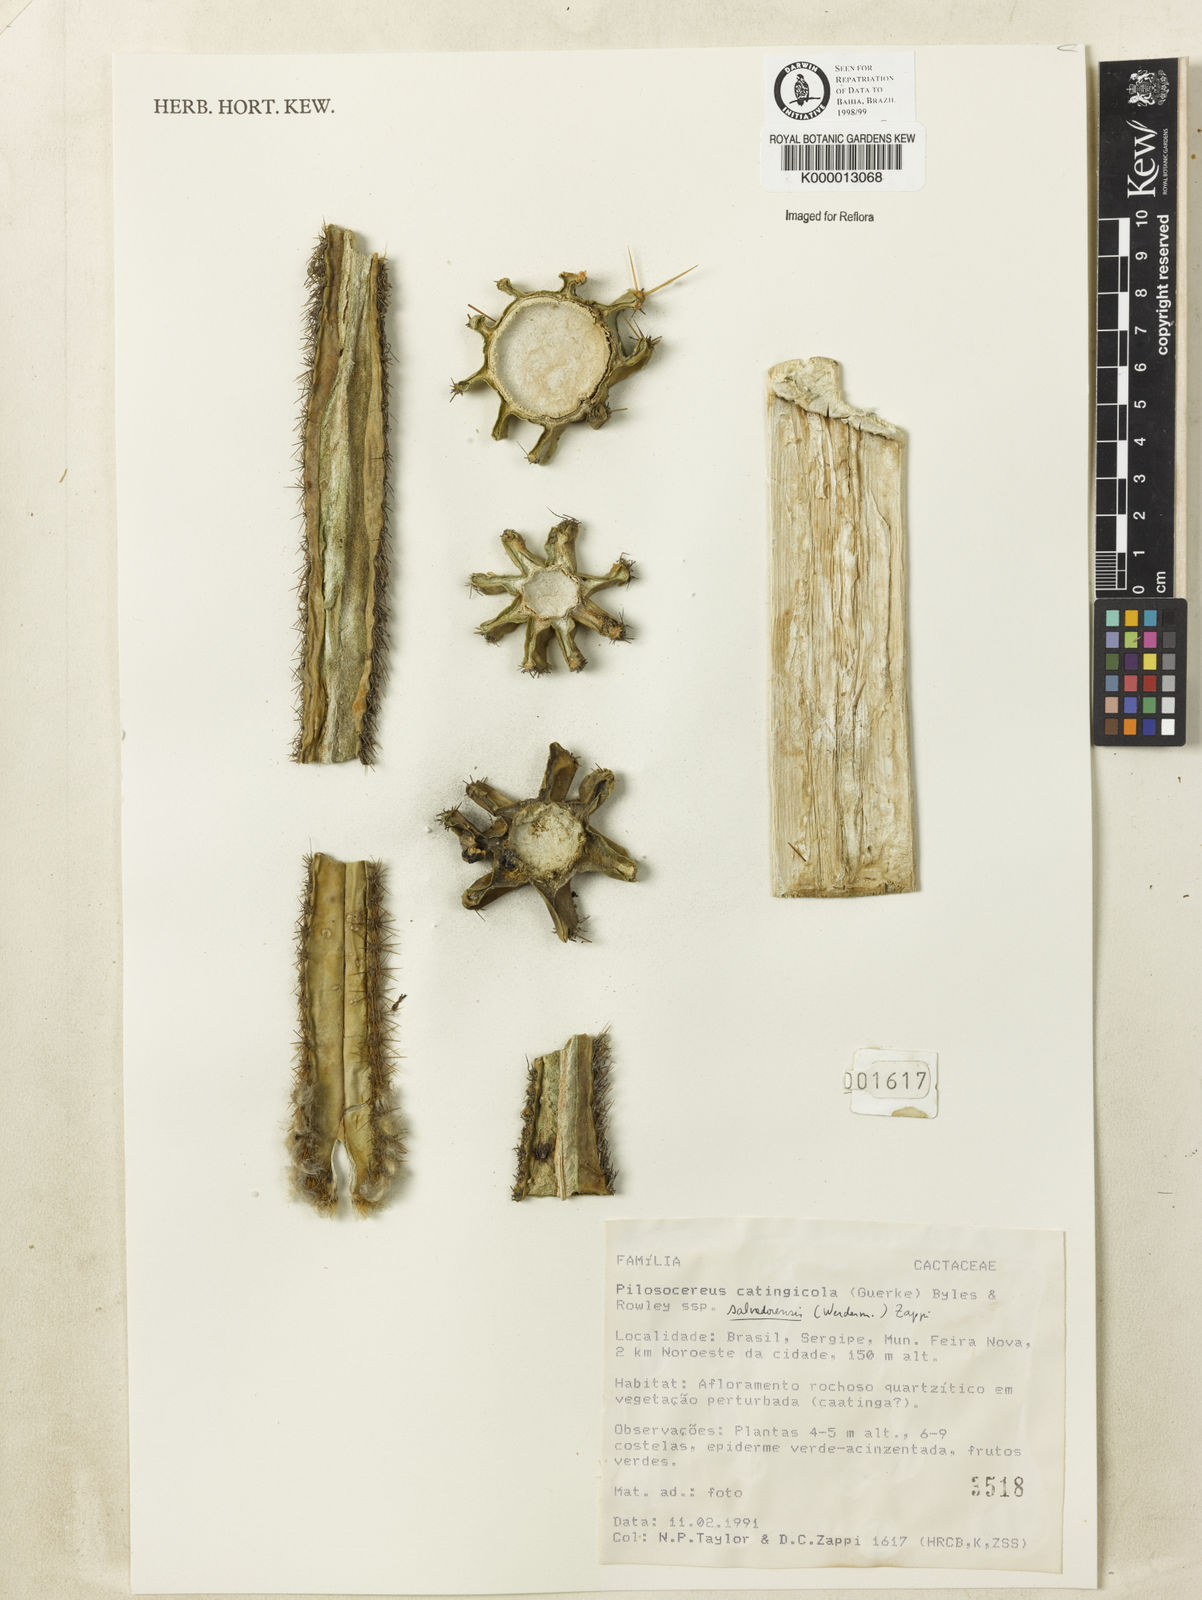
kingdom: Plantae
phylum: Tracheophyta
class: Magnoliopsida
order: Caryophyllales
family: Cactaceae
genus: Pilosocereus
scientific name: Pilosocereus catingicola
